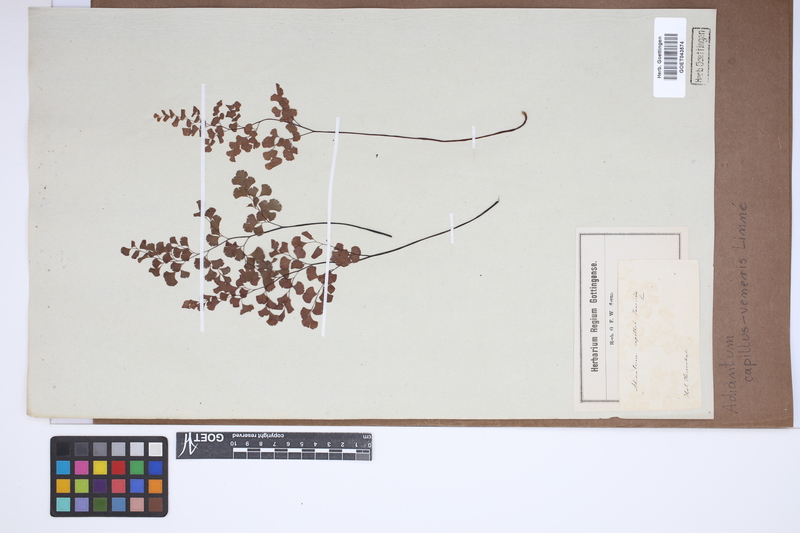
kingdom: Plantae
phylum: Tracheophyta
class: Polypodiopsida
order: Polypodiales
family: Pteridaceae
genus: Adiantum
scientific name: Adiantum capillus-veneris
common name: Maidenhair fern
